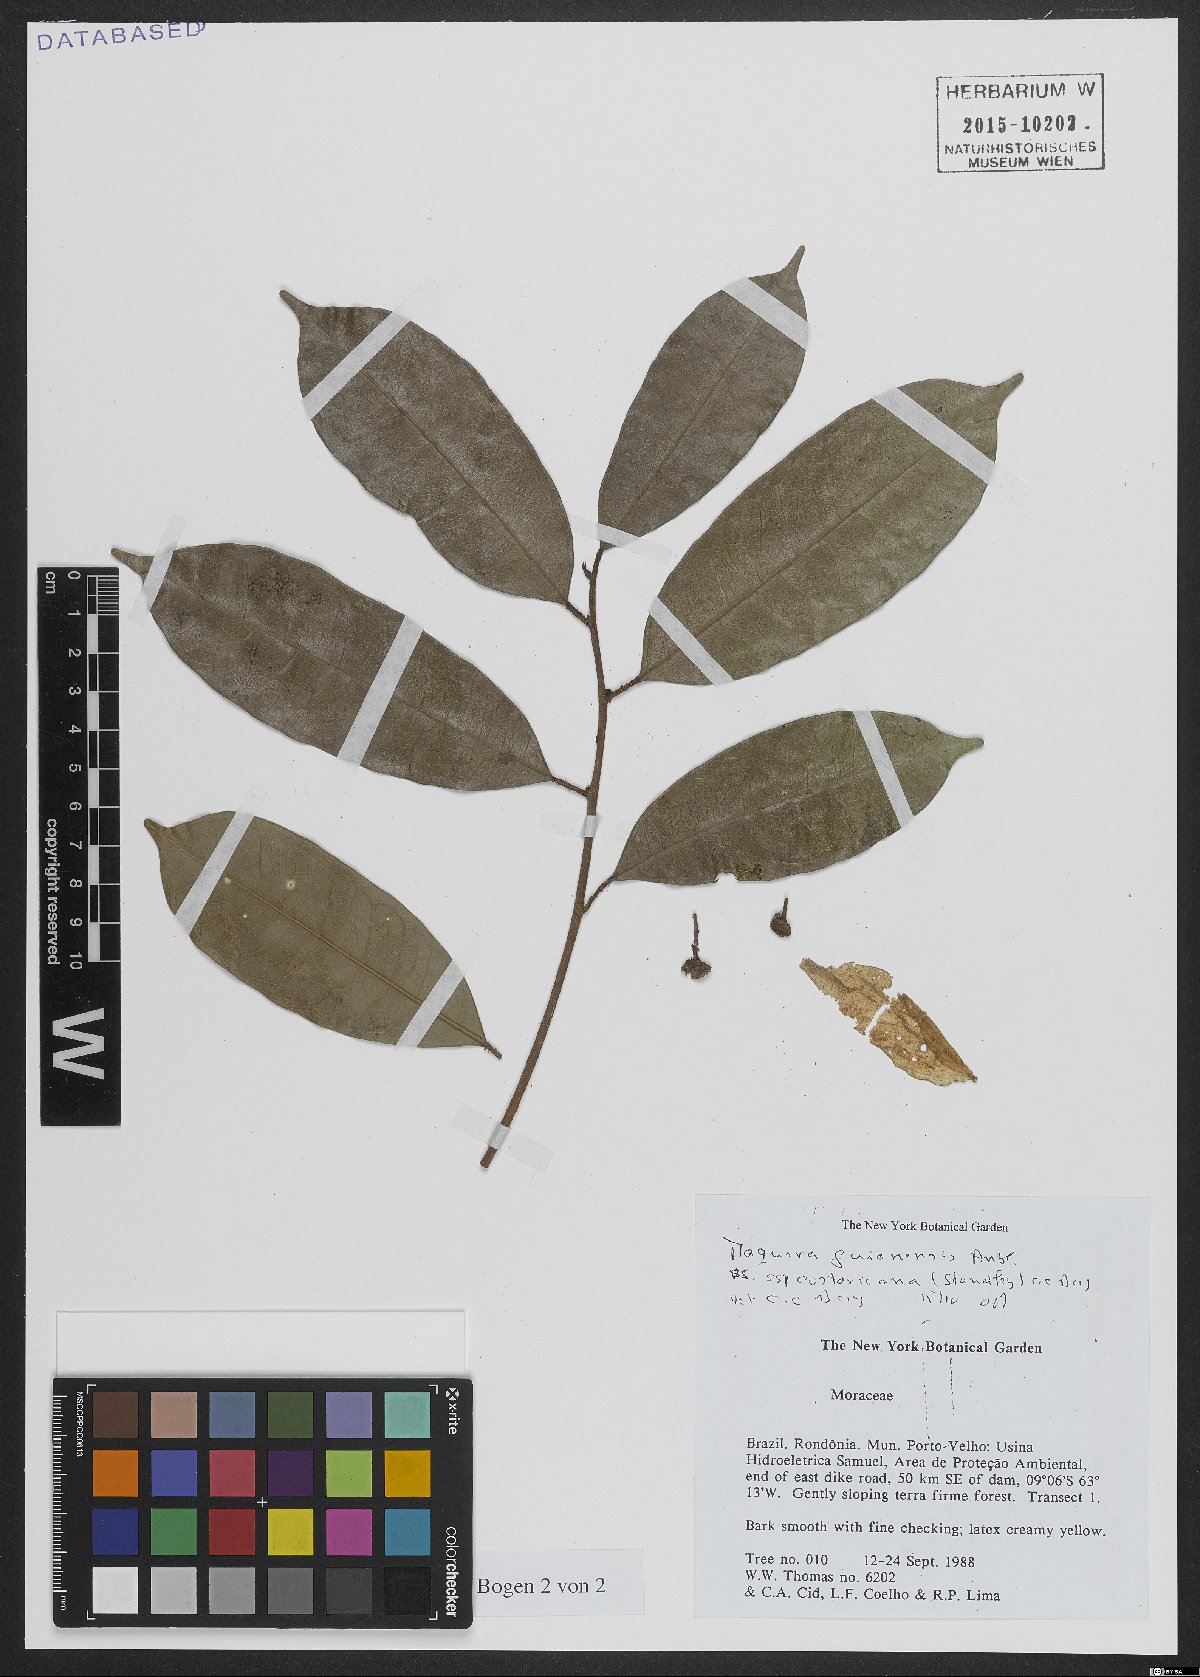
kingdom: Plantae
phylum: Tracheophyta
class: Magnoliopsida
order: Rosales
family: Moraceae
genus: Maquira
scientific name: Maquira guianensis
